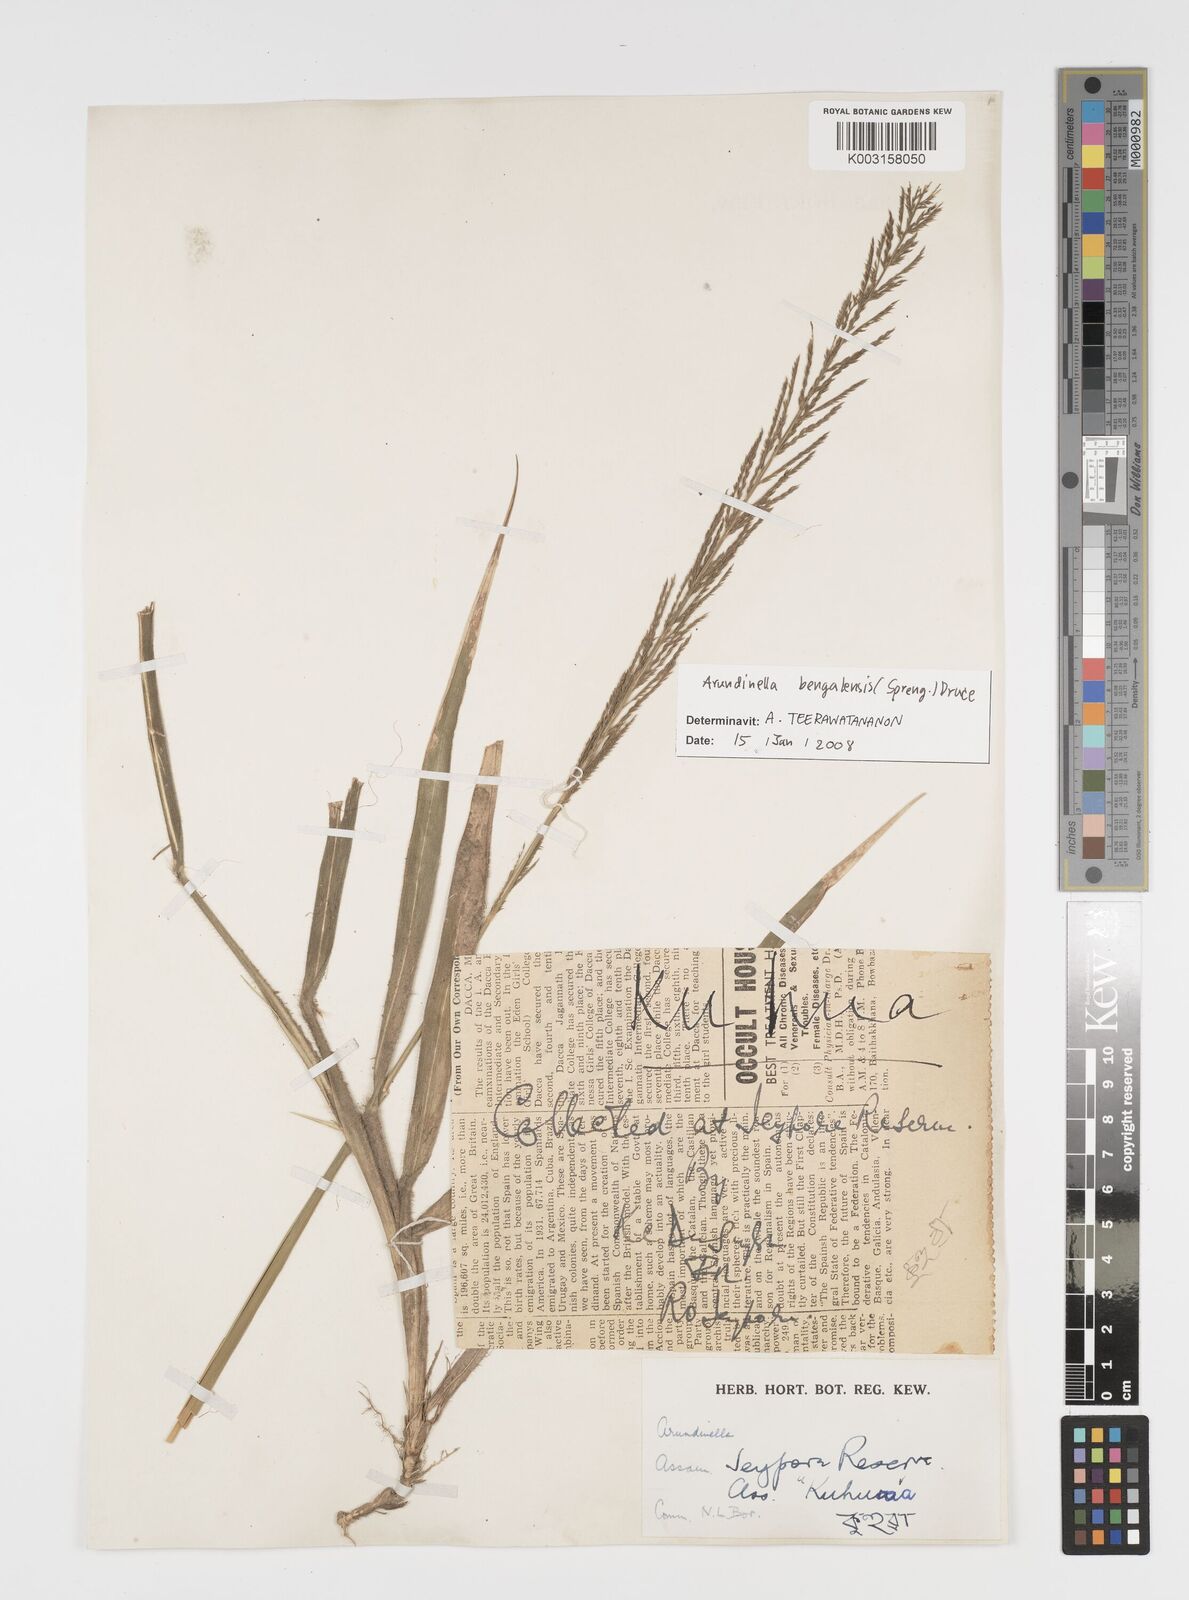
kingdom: Plantae
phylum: Tracheophyta
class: Liliopsida
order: Poales
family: Poaceae
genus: Arundinella
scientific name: Arundinella bengalensis
